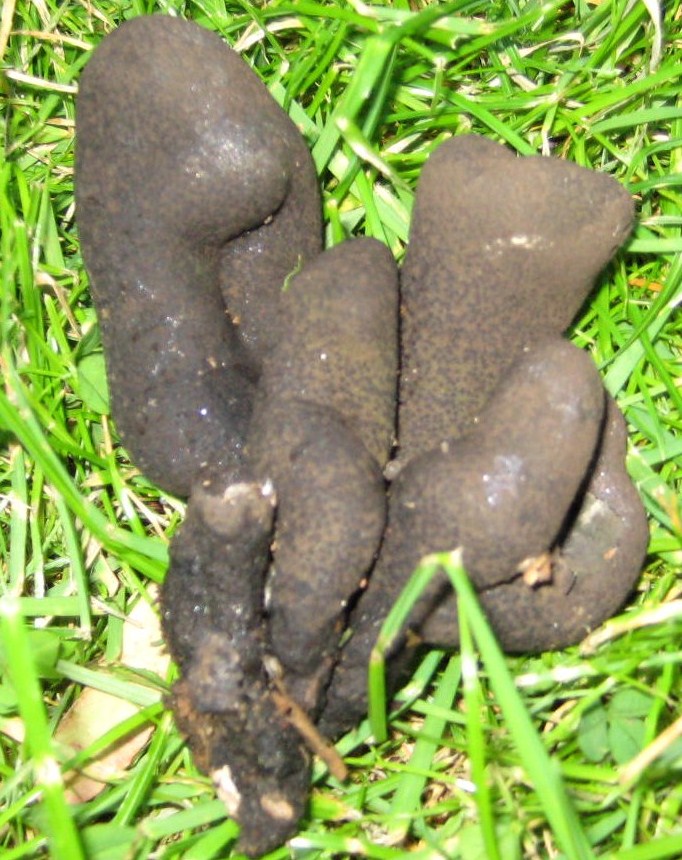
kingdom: Fungi
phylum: Ascomycota
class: Sordariomycetes
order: Xylariales
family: Xylariaceae
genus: Xylaria
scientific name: Xylaria polymorpha
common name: kølle-stødsvamp
